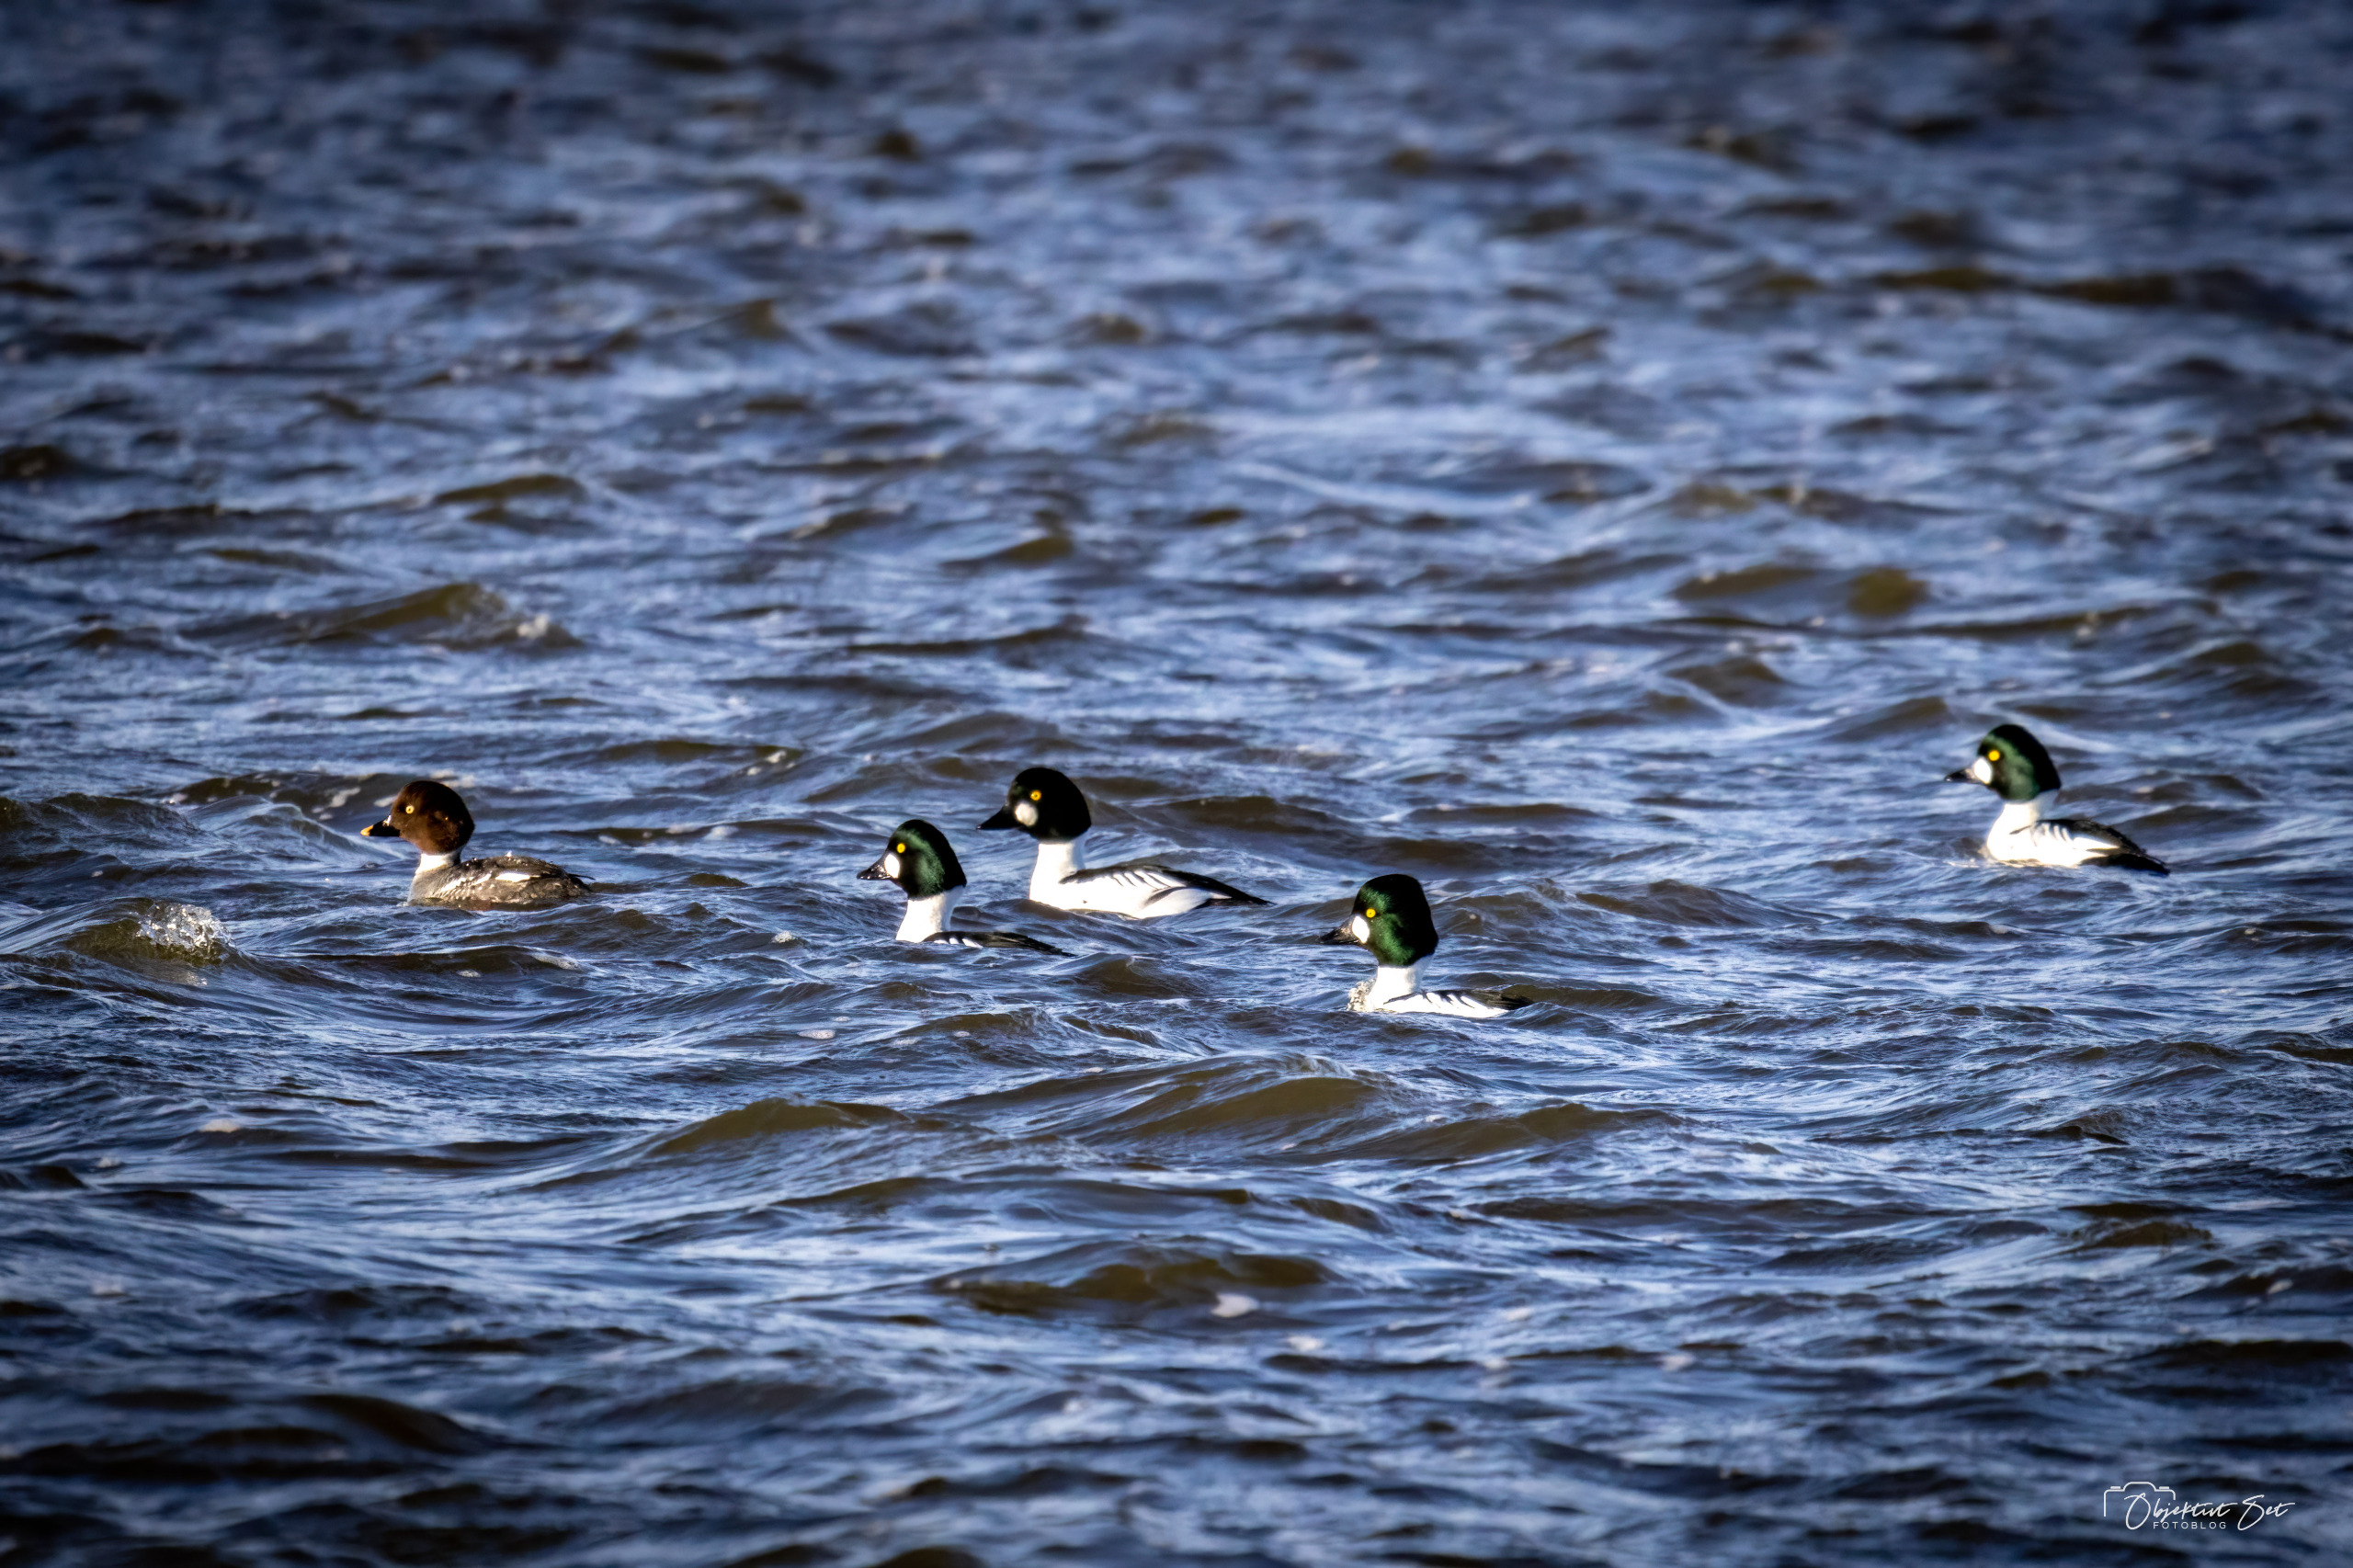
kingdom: Animalia
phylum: Chordata
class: Aves
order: Anseriformes
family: Anatidae
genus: Bucephala
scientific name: Bucephala clangula
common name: Hvinand
